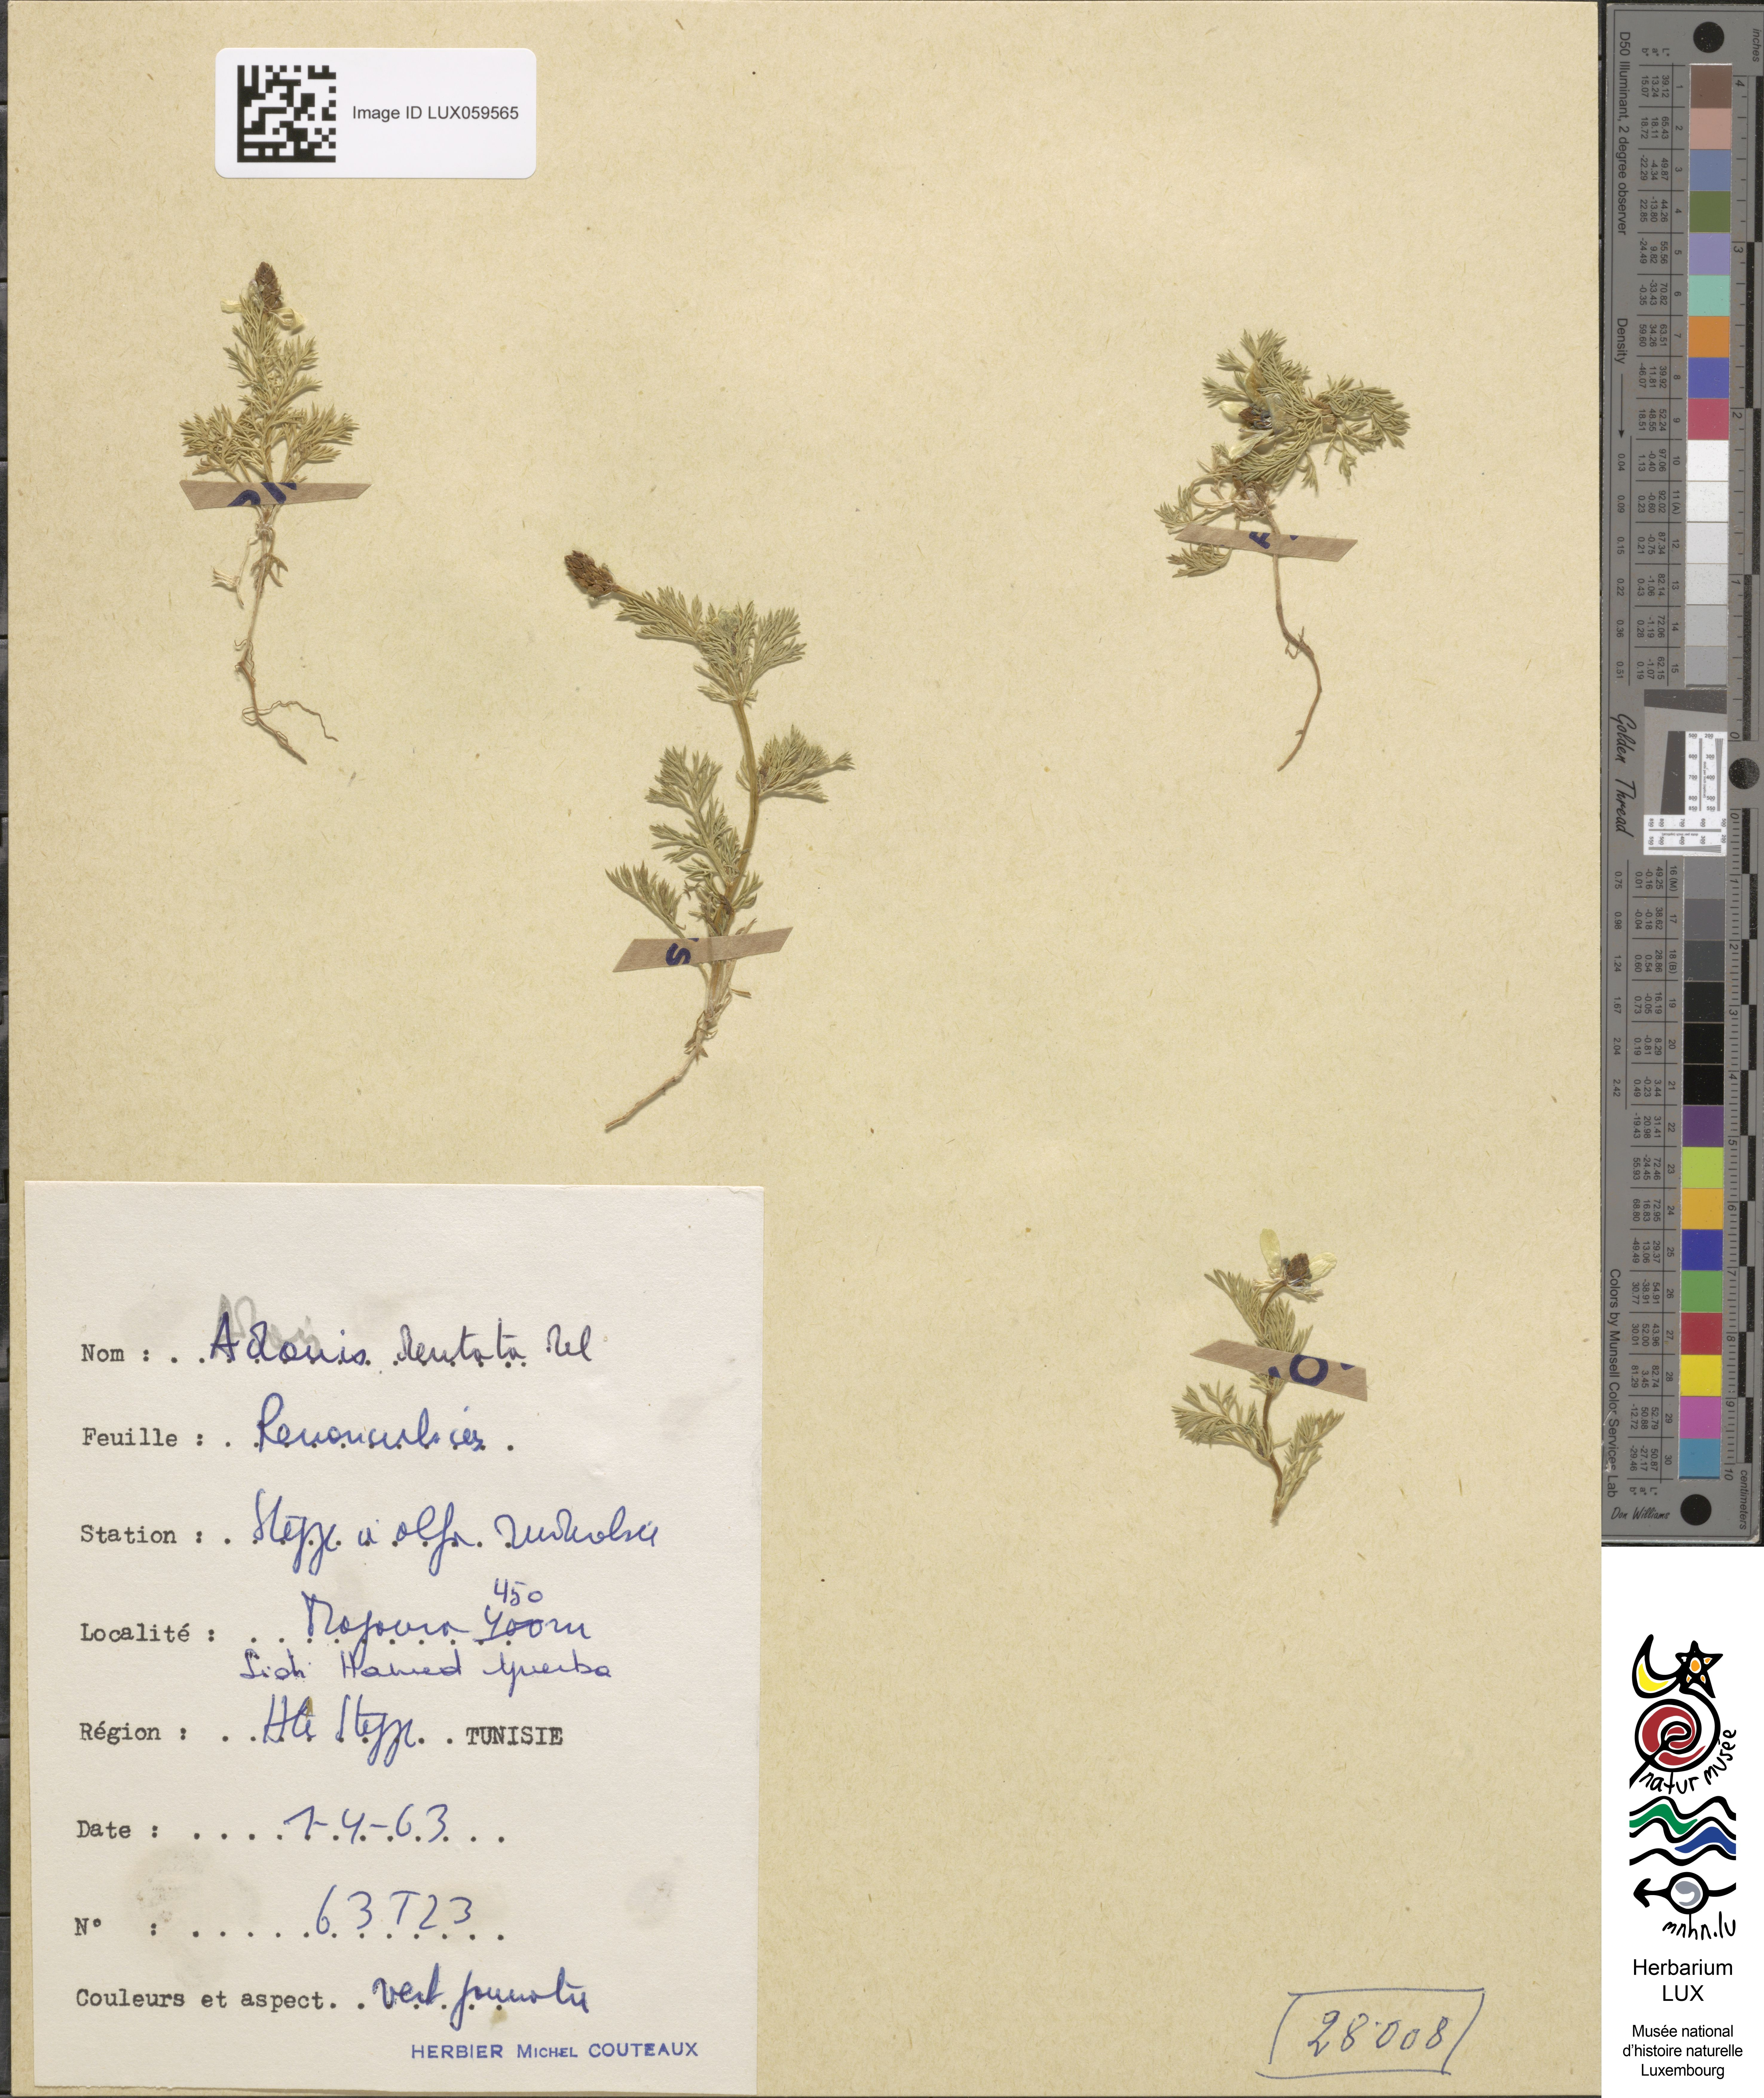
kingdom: Plantae
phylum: Tracheophyta
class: Magnoliopsida
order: Ranunculales
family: Ranunculaceae
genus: Adonis
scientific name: Adonis dentata
